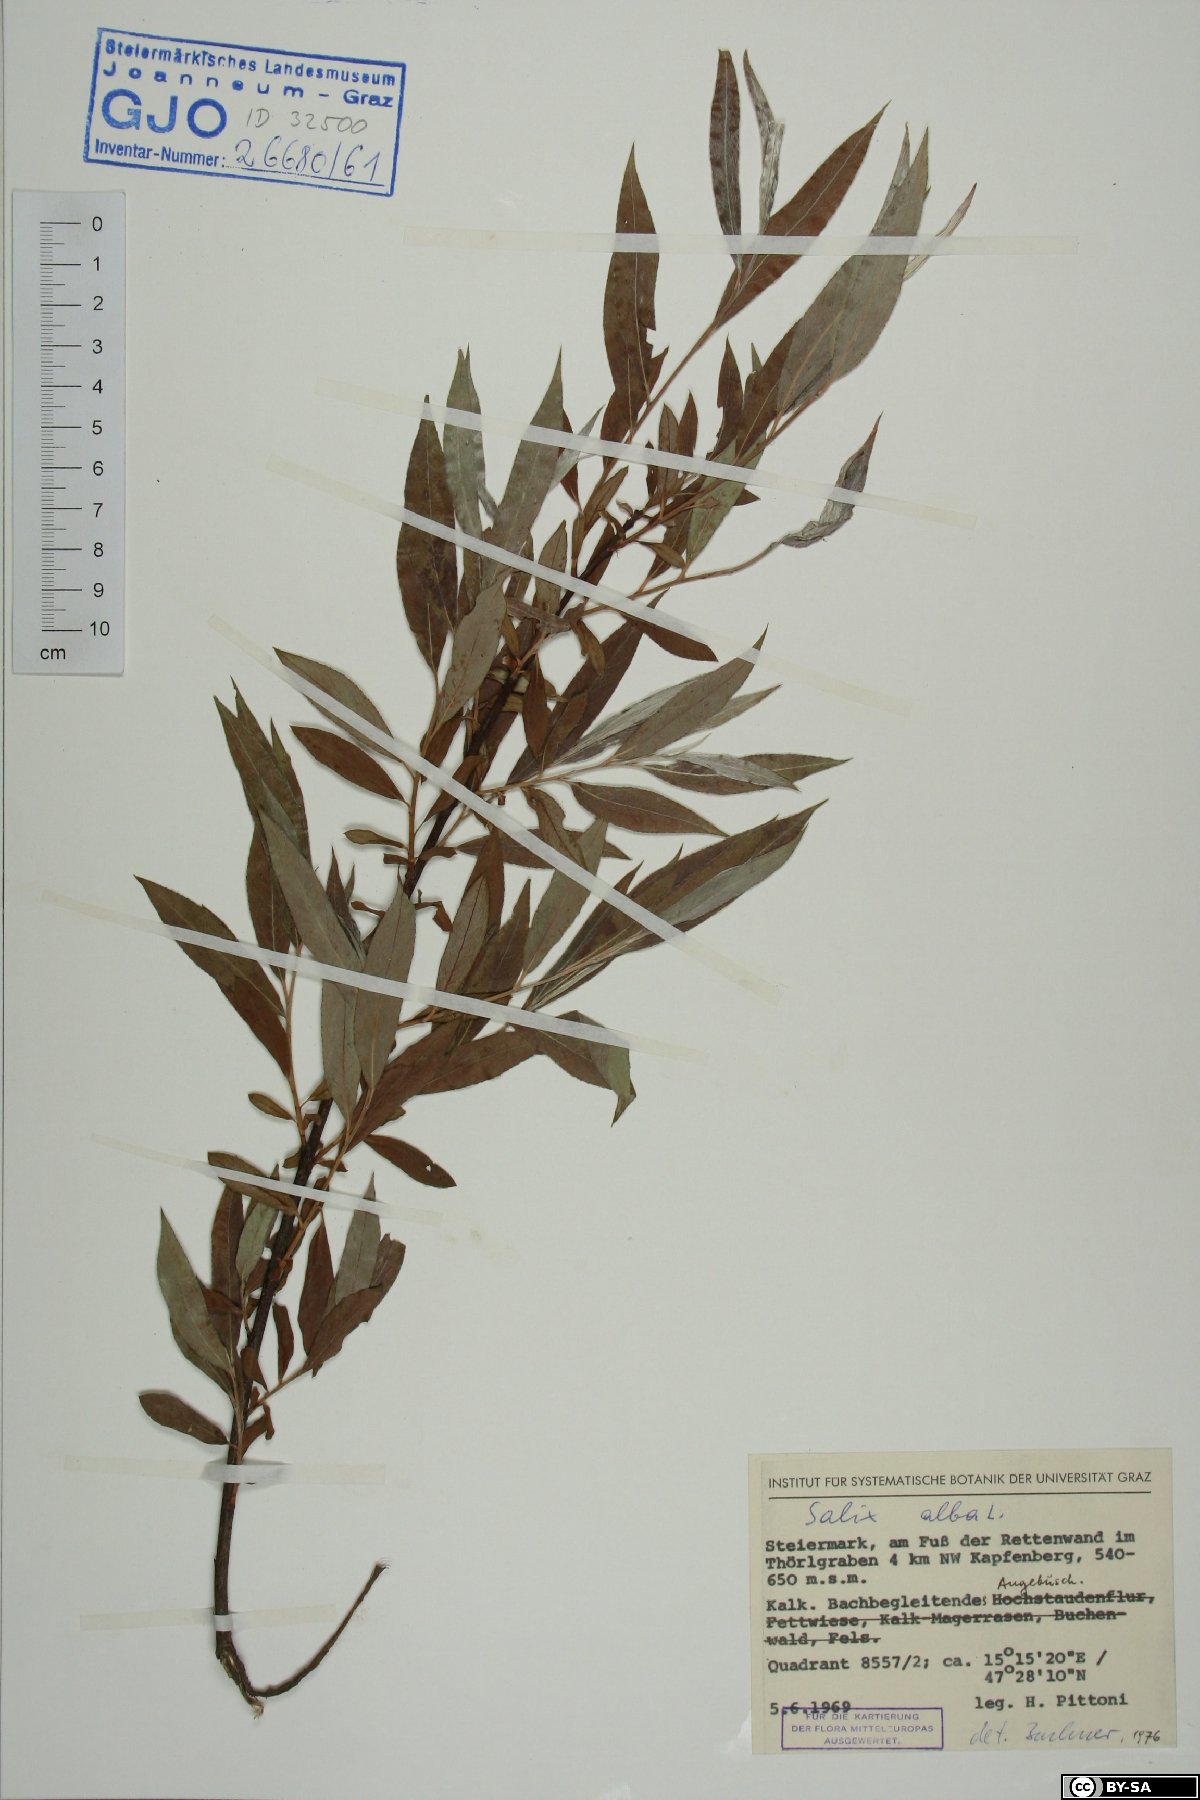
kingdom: Plantae
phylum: Tracheophyta
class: Magnoliopsida
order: Malpighiales
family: Salicaceae
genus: Salix
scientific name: Salix alba
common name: White willow
